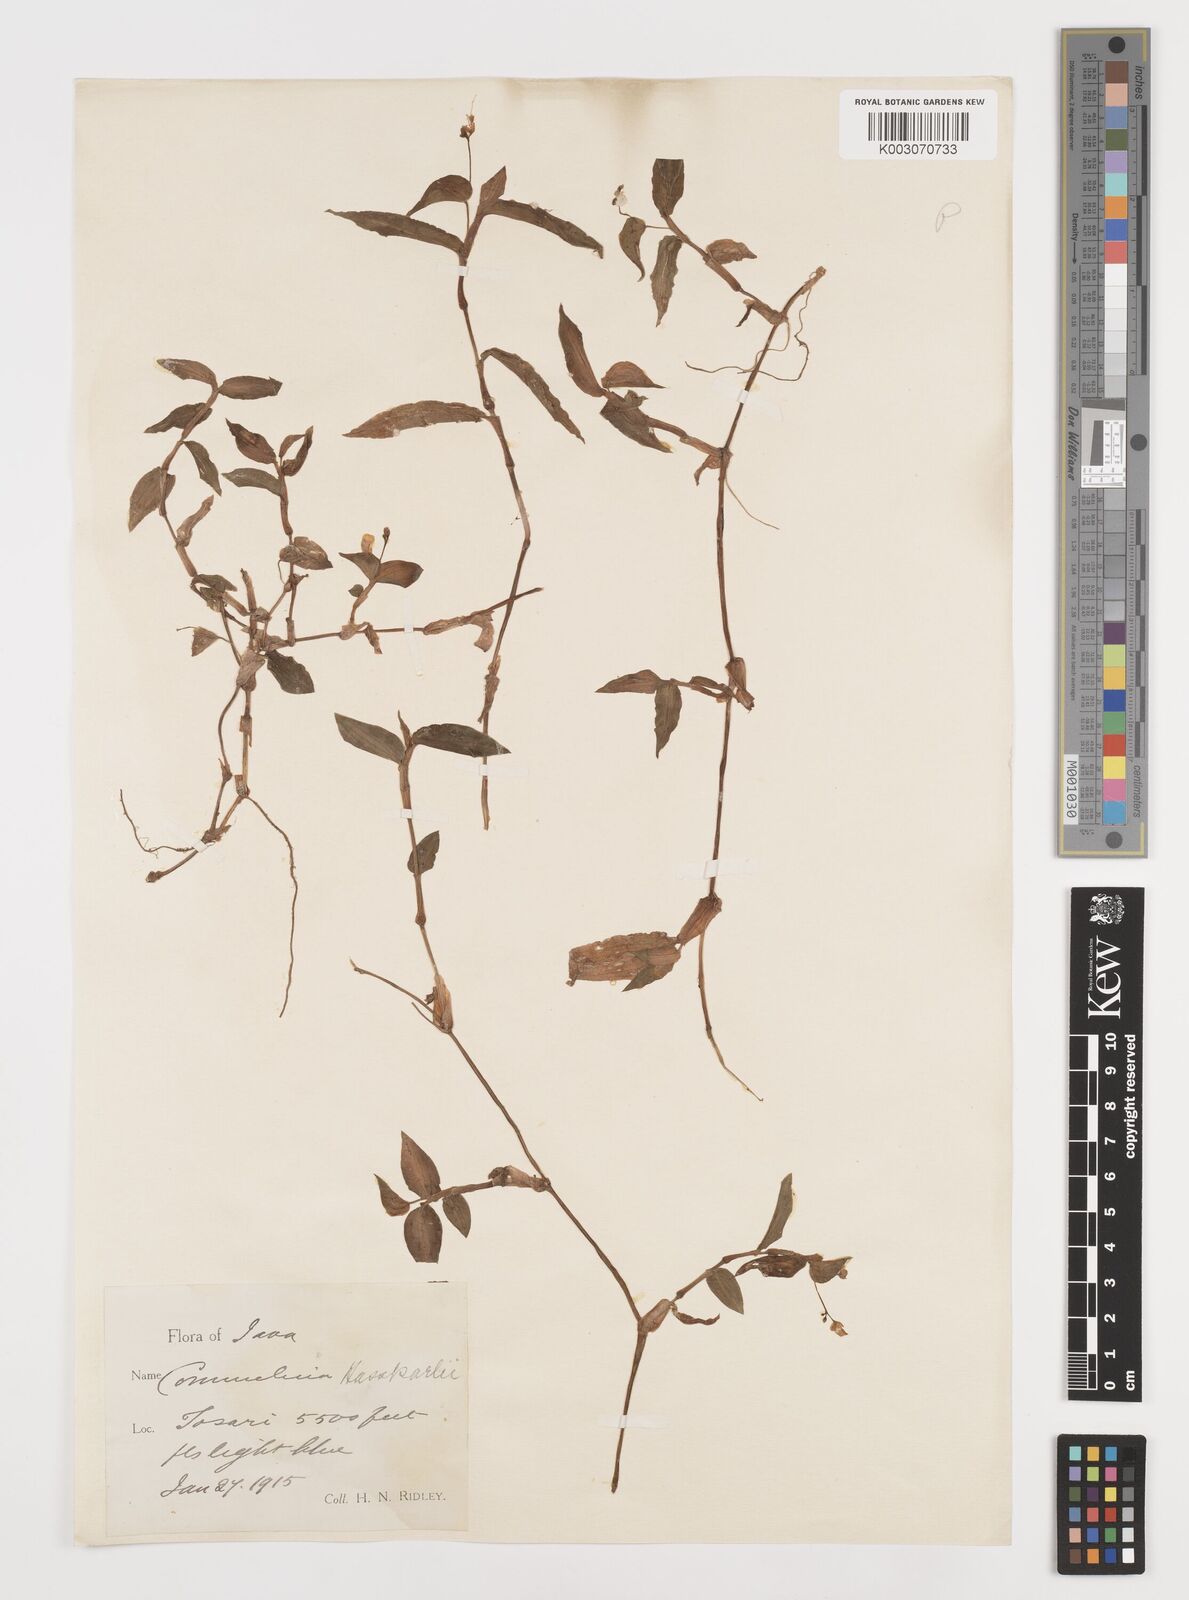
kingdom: Plantae
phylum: Tracheophyta
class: Liliopsida
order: Commelinales
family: Commelinaceae
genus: Commelina
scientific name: Commelina caroliniana
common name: Carolina dayflower
